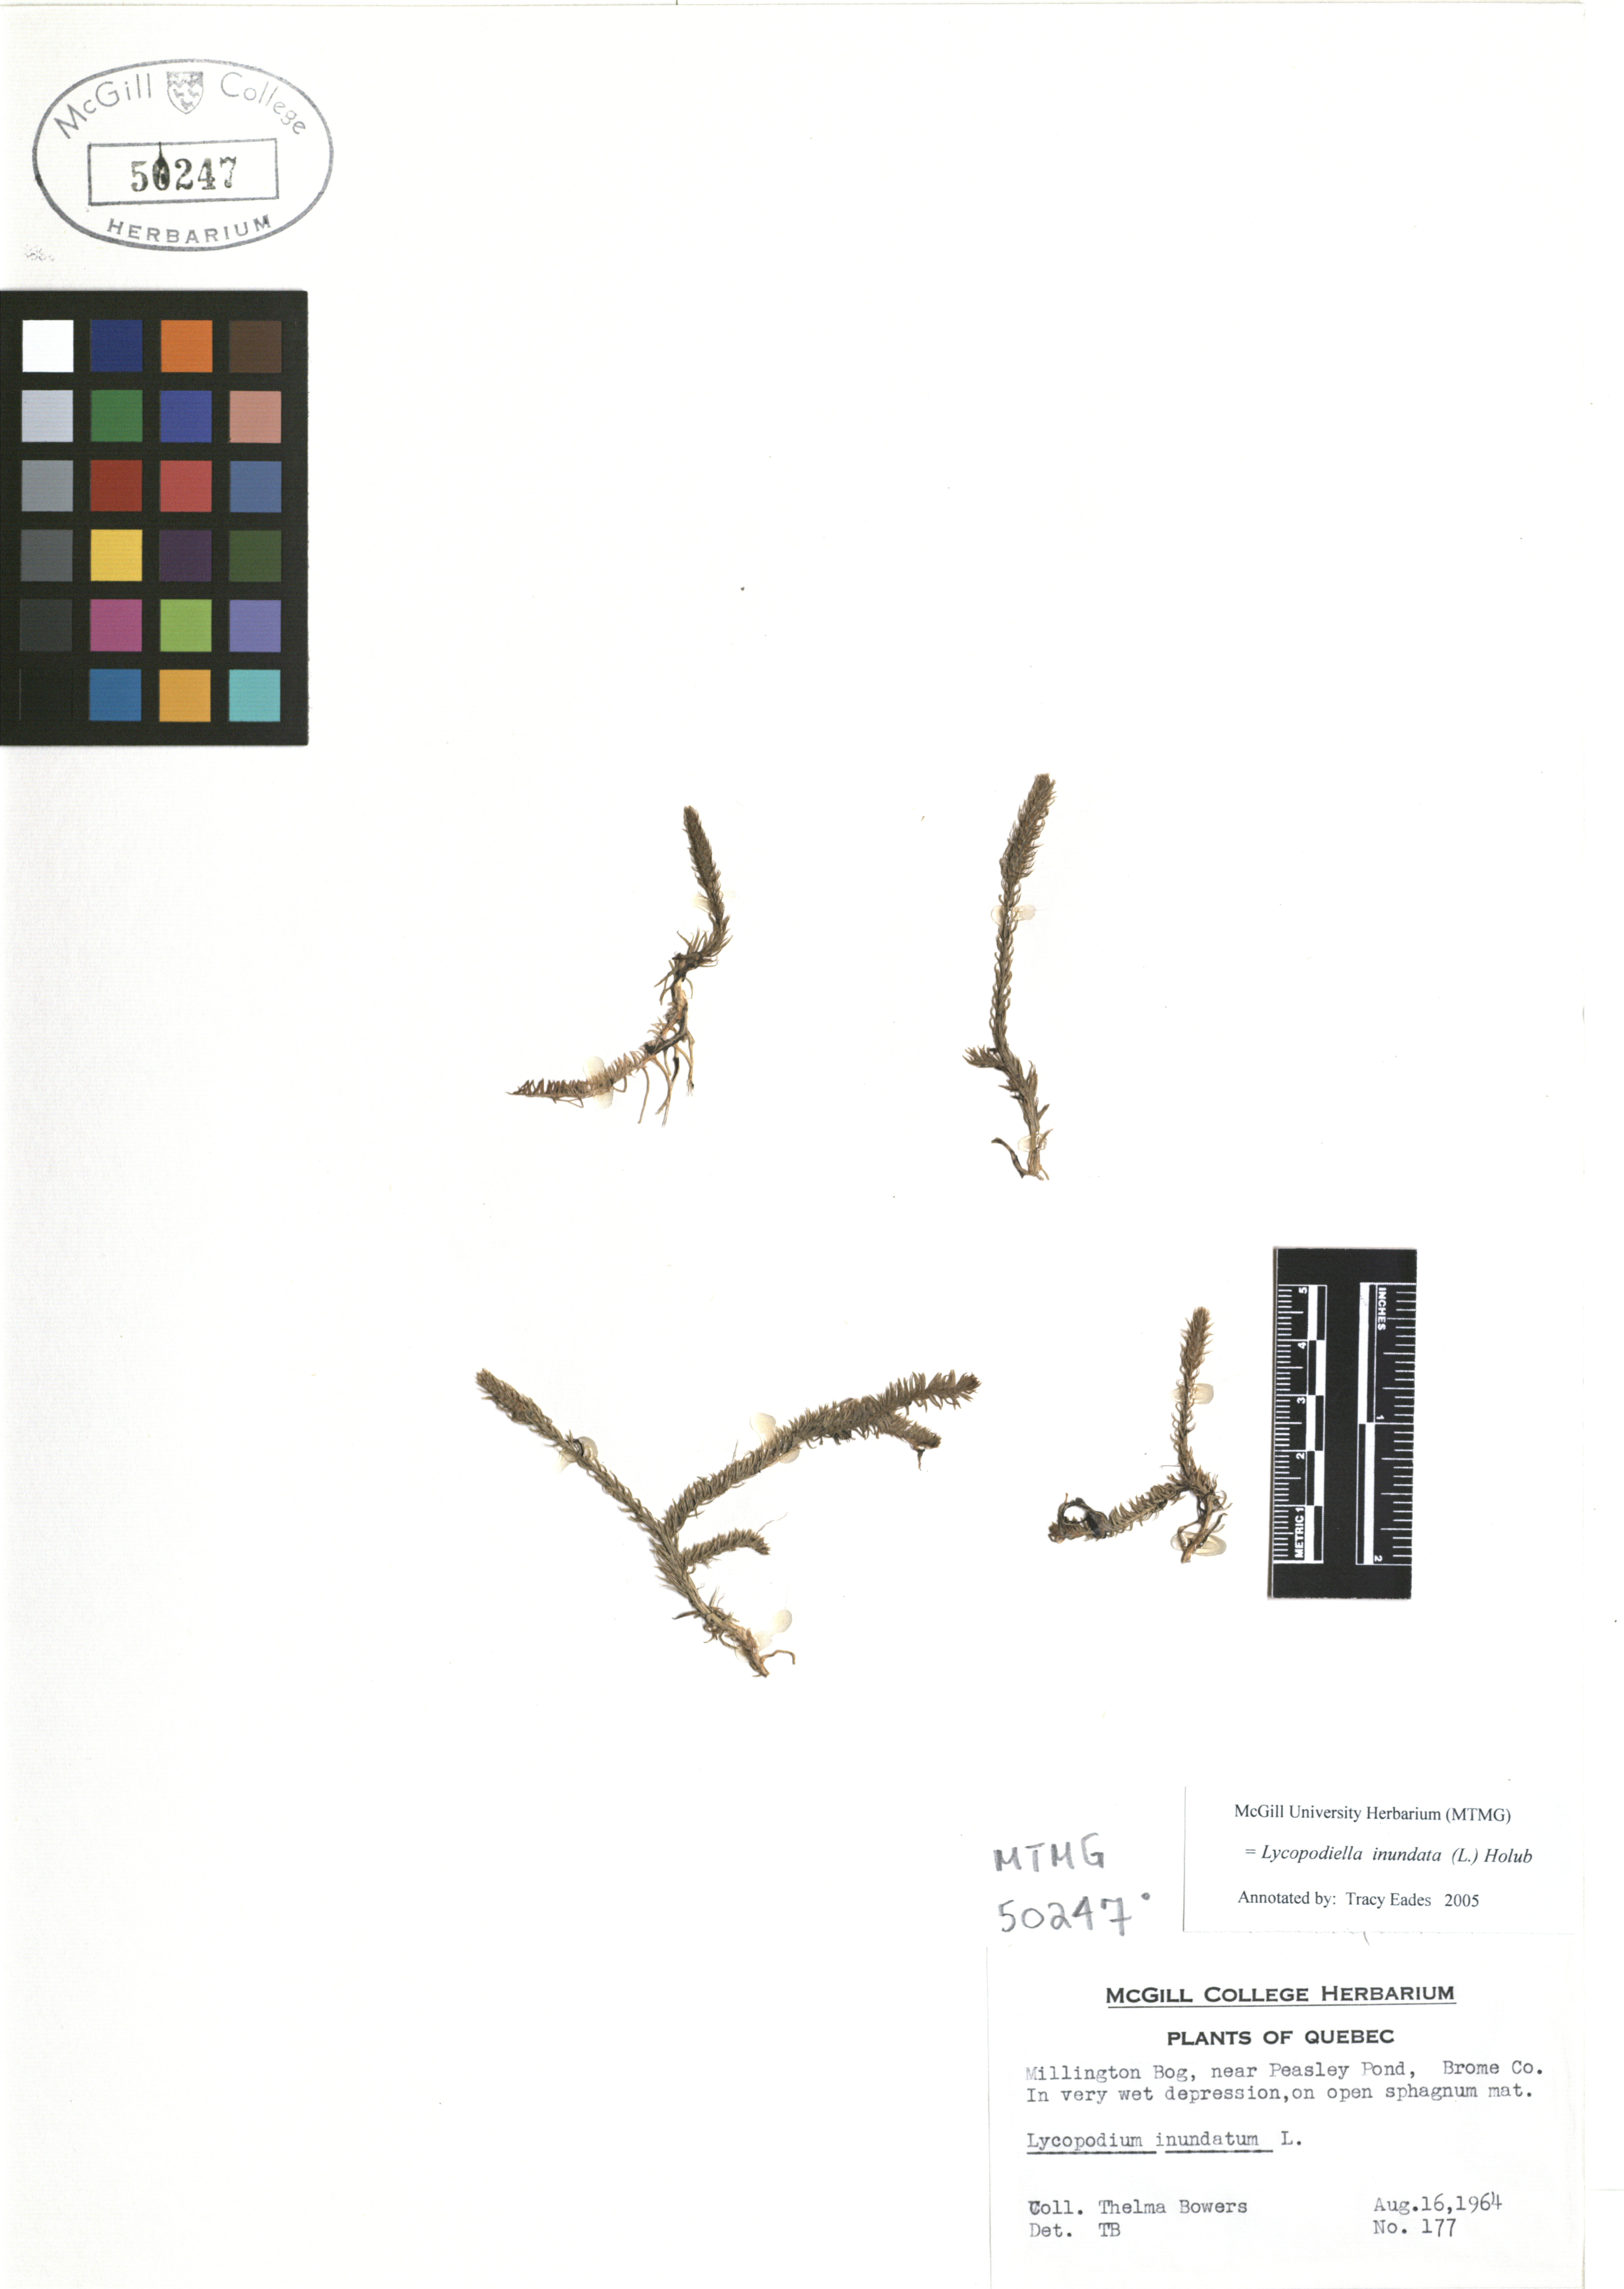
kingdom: Plantae
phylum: Tracheophyta
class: Lycopodiopsida
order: Lycopodiales
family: Lycopodiaceae
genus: Lycopodiella
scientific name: Lycopodiella inundata
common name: Marsh clubmoss
